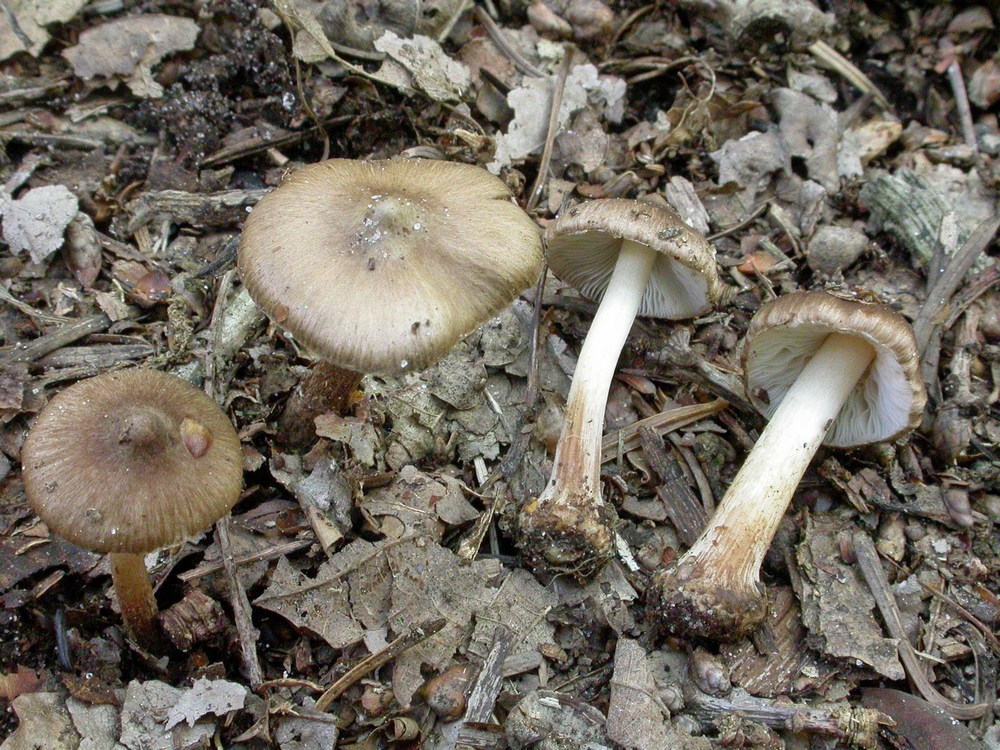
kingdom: Fungi
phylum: Basidiomycota
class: Agaricomycetes
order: Agaricales
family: Inocybaceae
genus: Inocybe
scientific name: Inocybe napipes
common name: roeknoldet trævlhat
